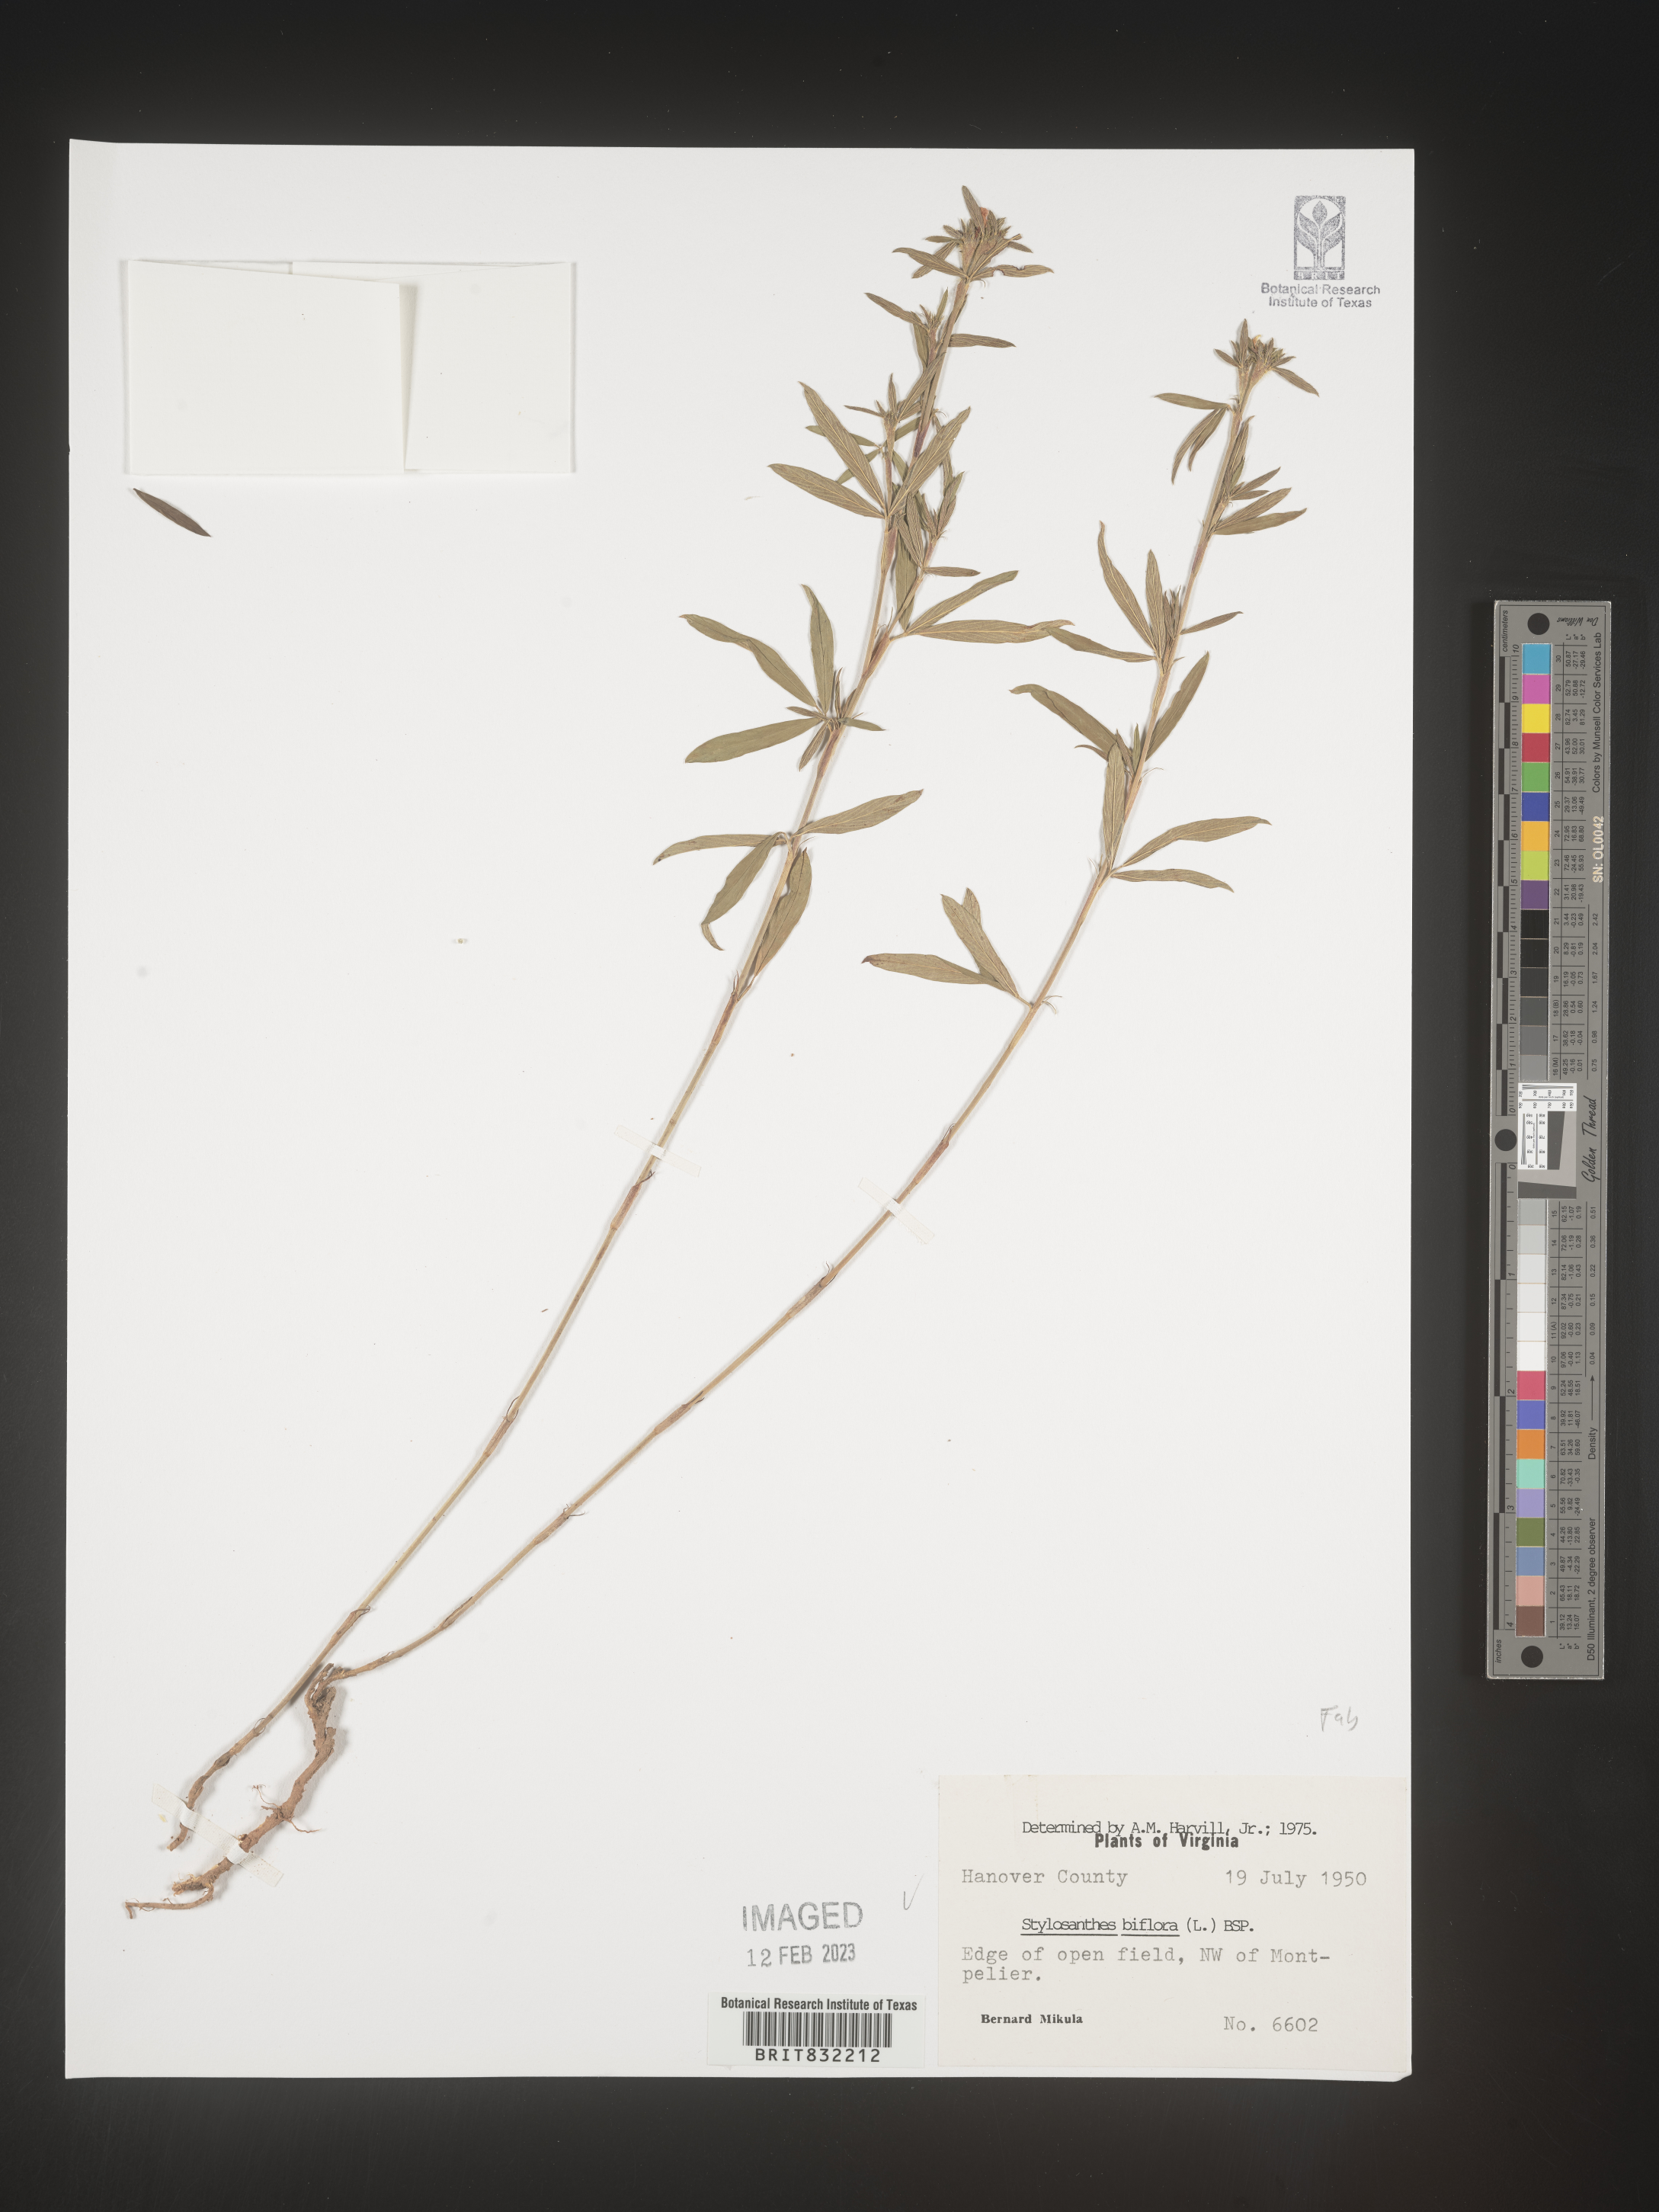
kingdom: Plantae
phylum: Tracheophyta
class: Magnoliopsida
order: Fabales
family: Fabaceae
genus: Stylosanthes
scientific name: Stylosanthes biflora
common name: Two-flower pencil-flower
